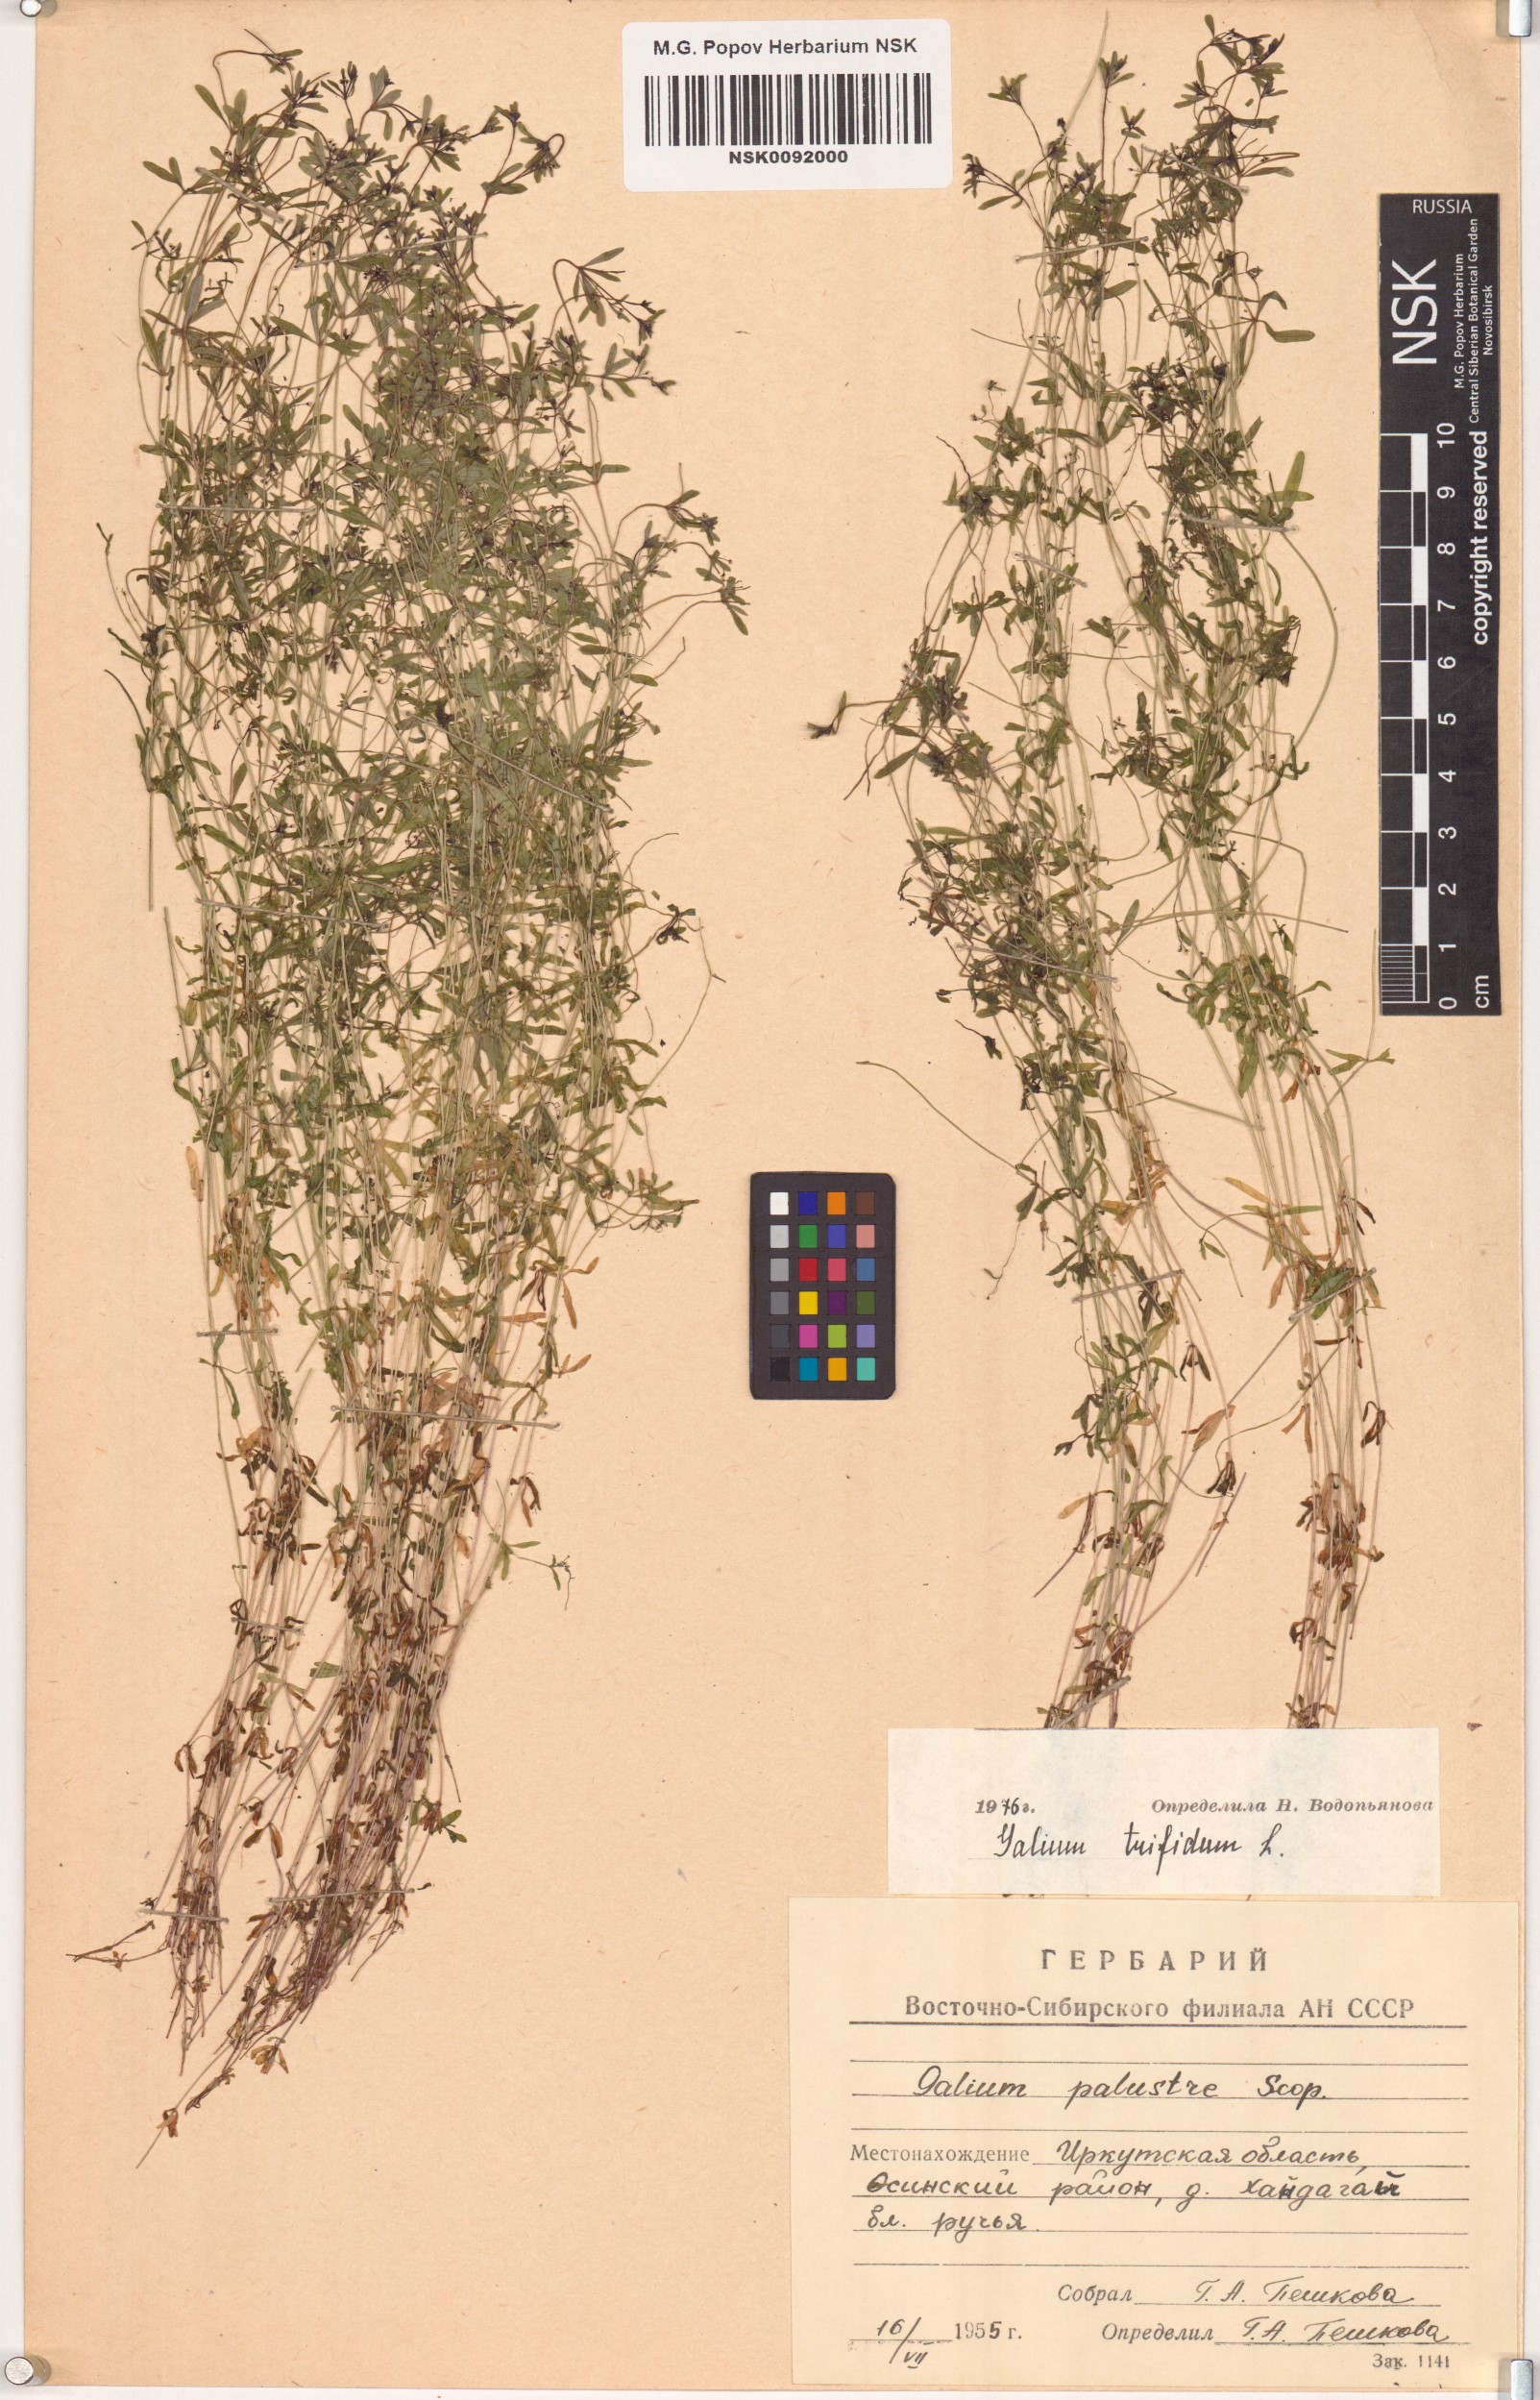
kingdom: Plantae
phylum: Tracheophyta
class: Magnoliopsida
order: Gentianales
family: Rubiaceae
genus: Galium
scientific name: Galium trifidum
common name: Small bedstraw
